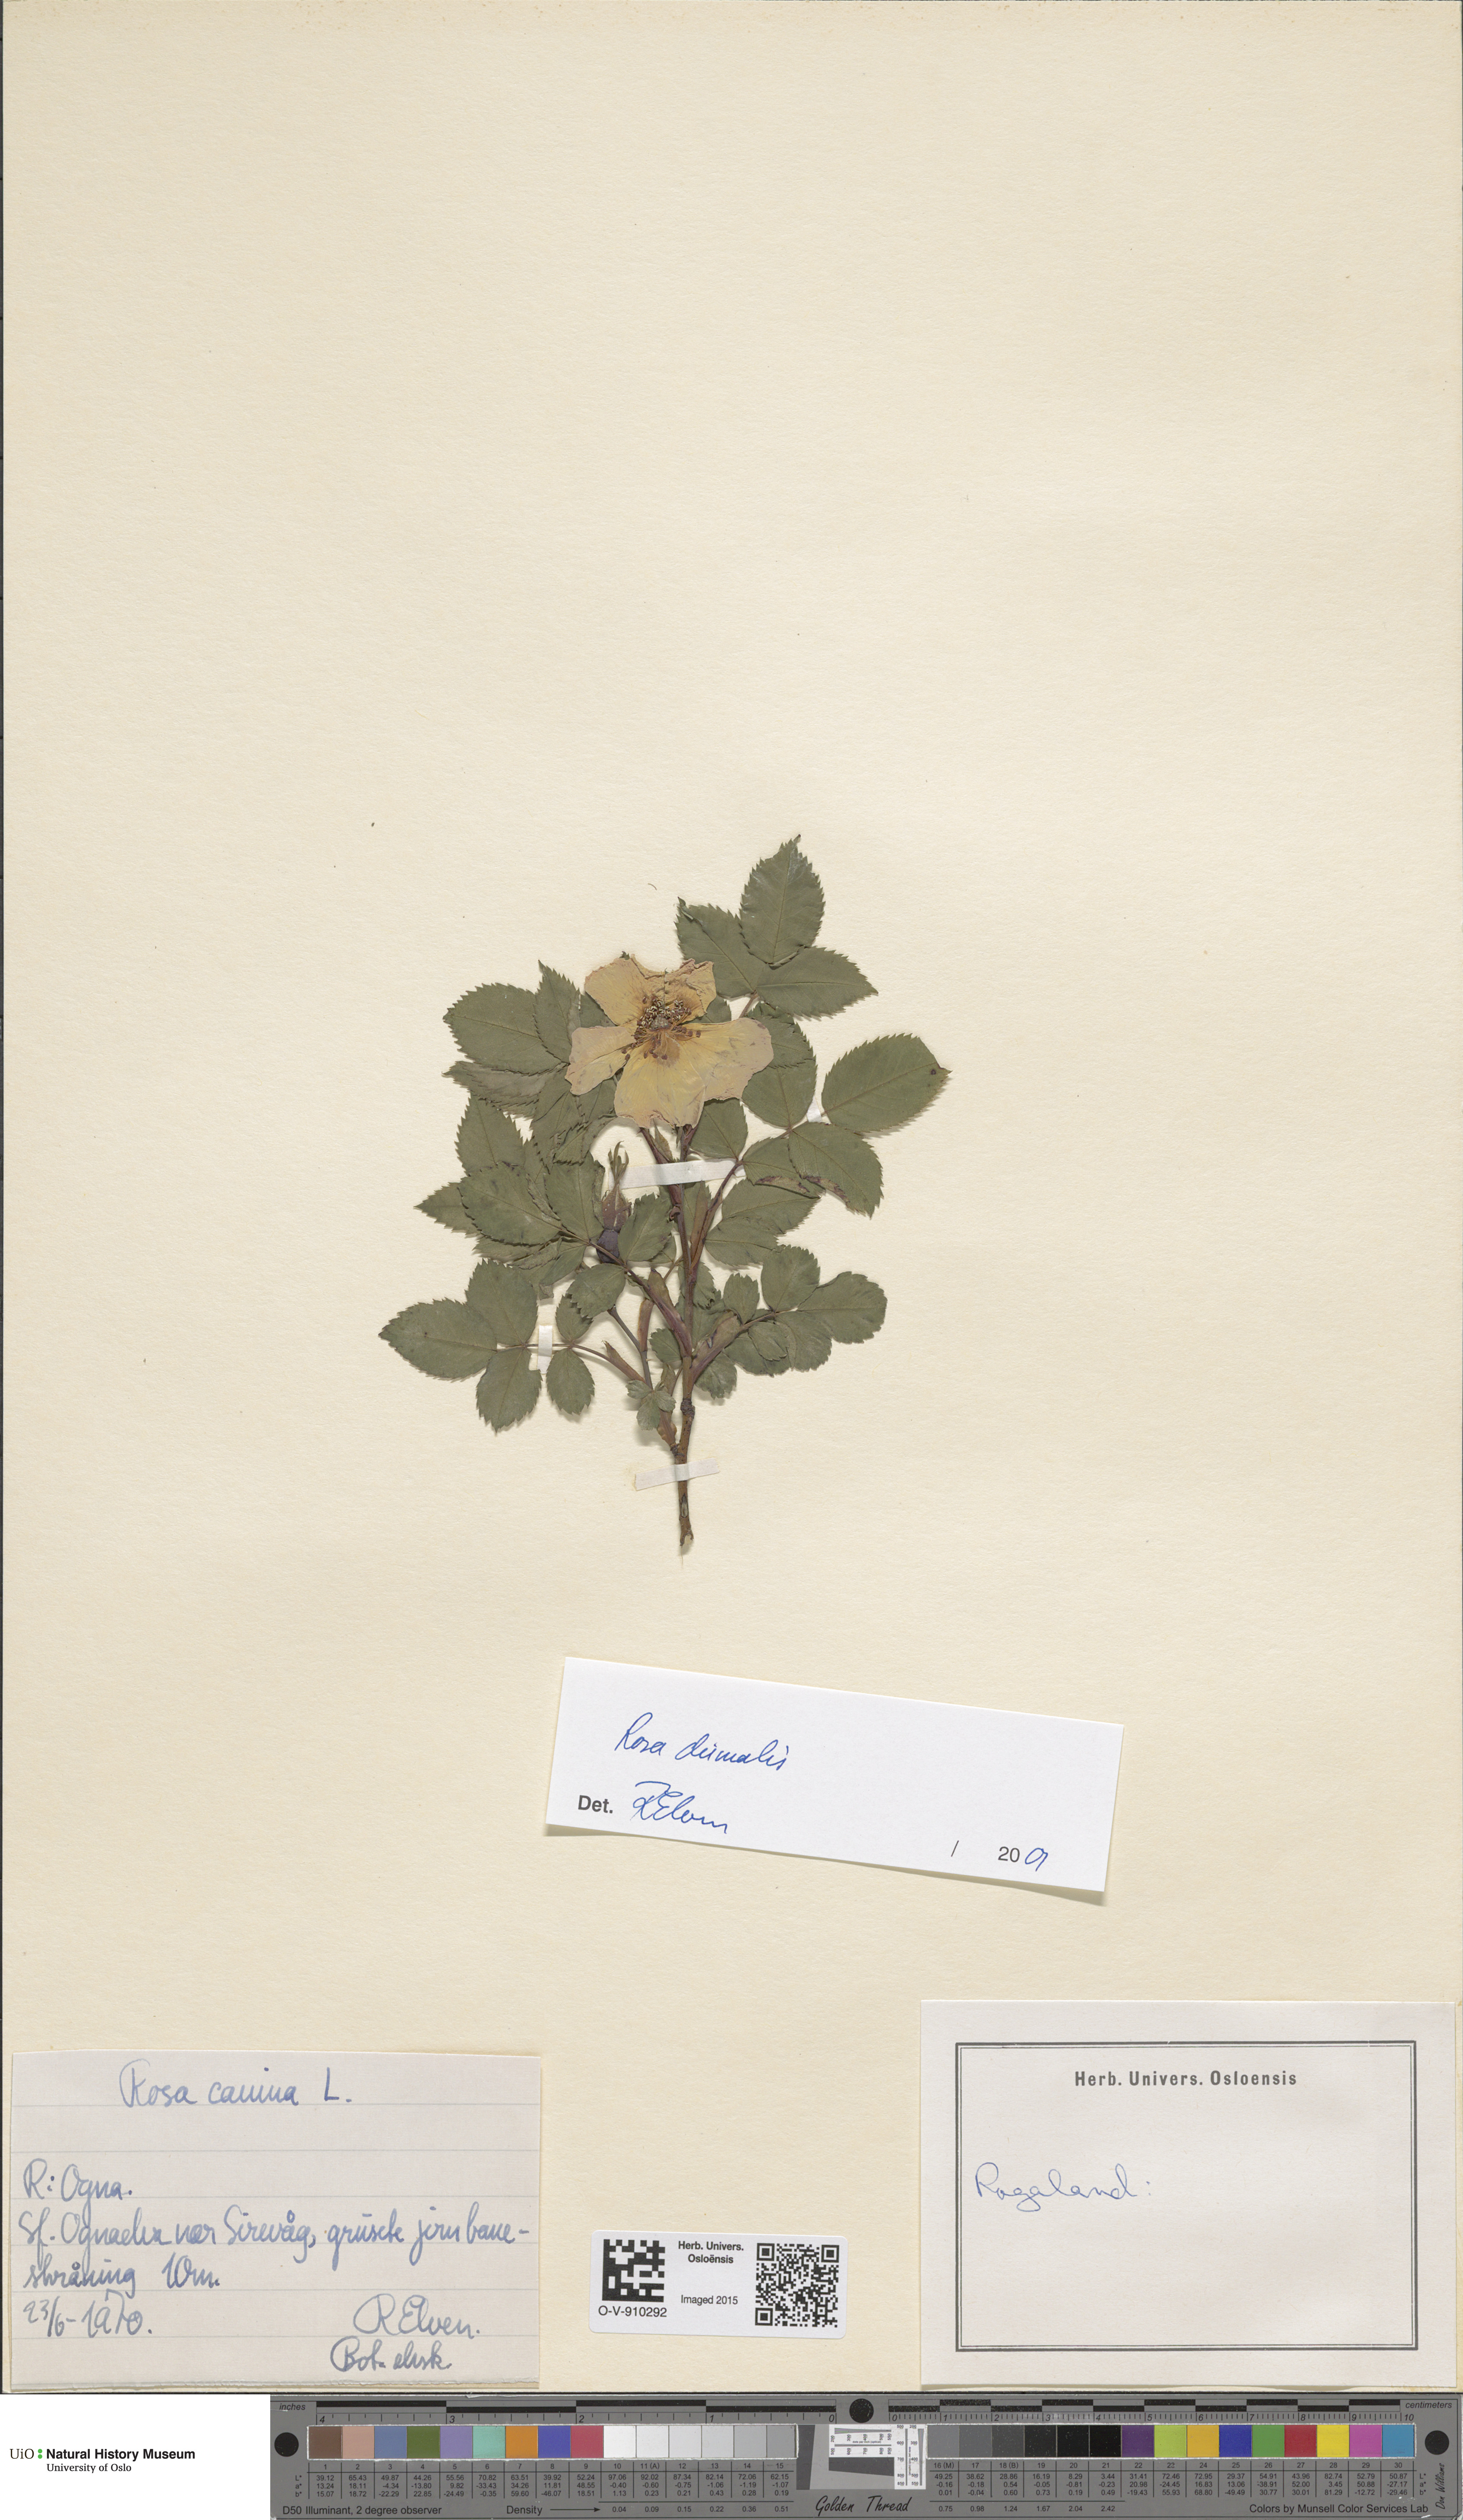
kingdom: Plantae
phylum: Tracheophyta
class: Magnoliopsida
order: Rosales
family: Rosaceae
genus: Rosa
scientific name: Rosa dumalis
